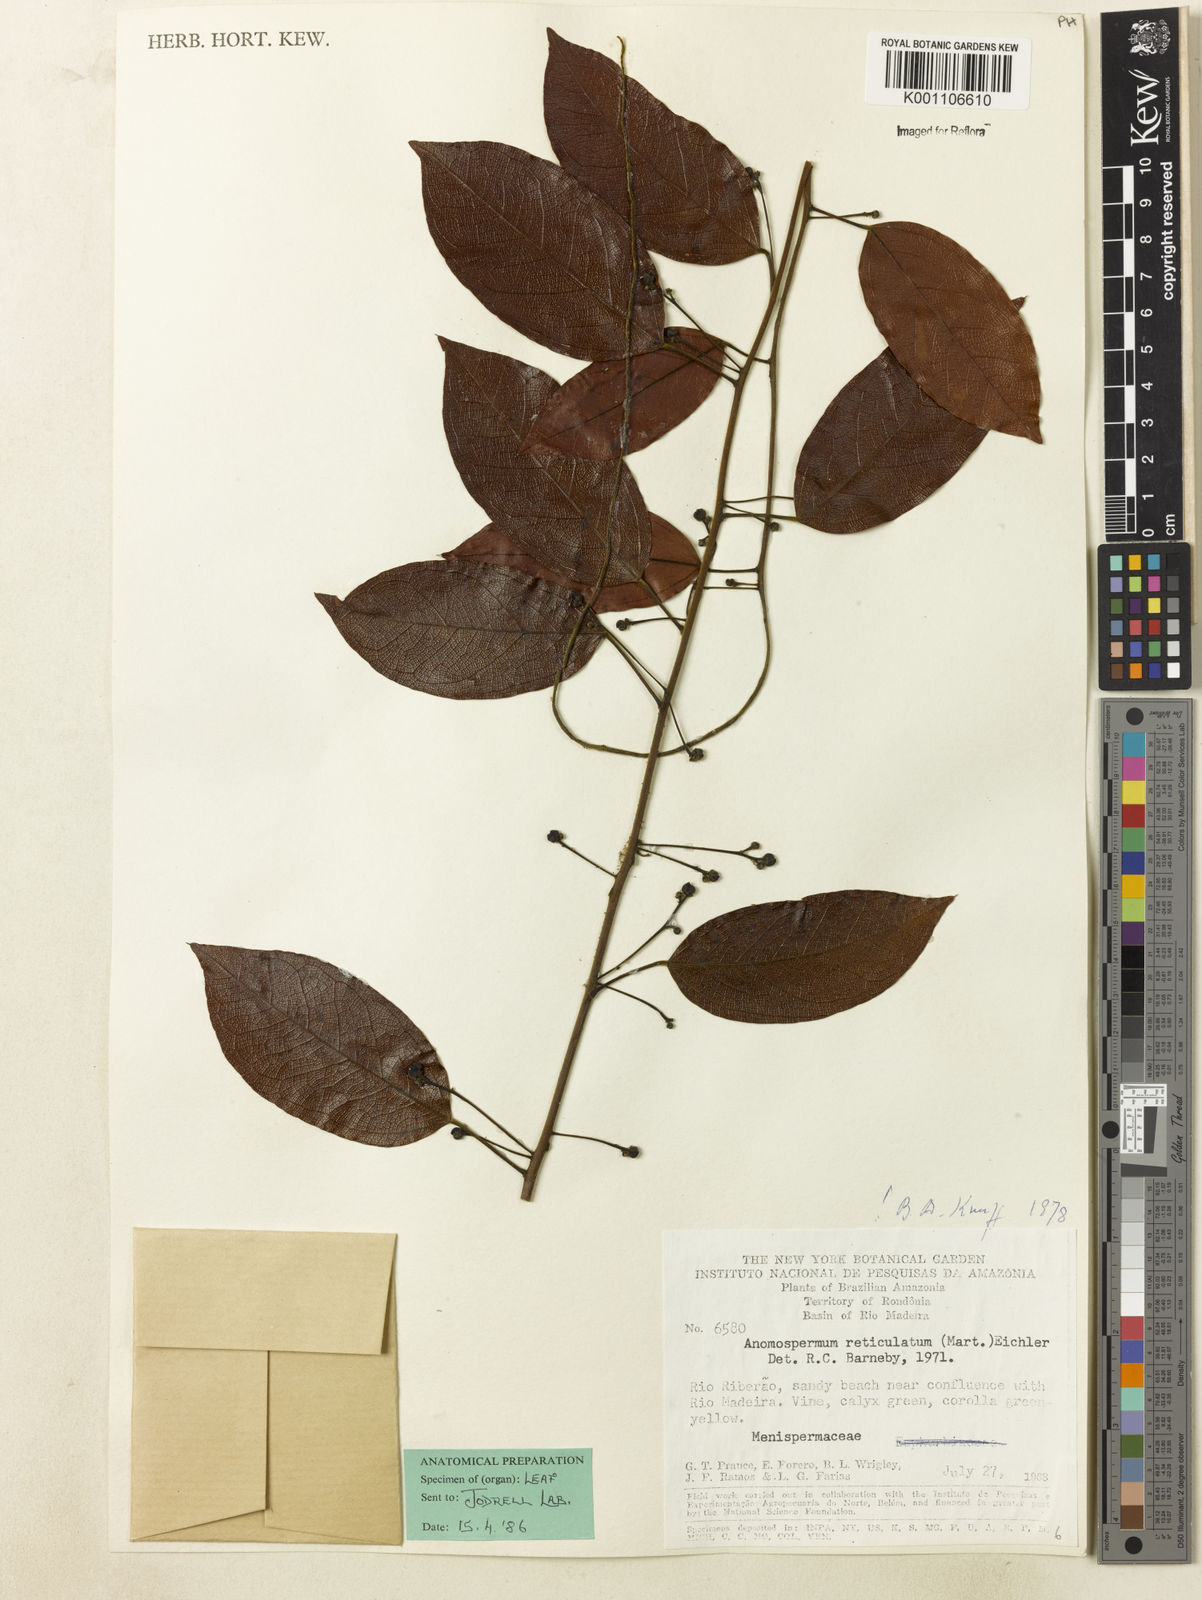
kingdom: Plantae
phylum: Tracheophyta
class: Magnoliopsida
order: Ranunculales
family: Menispermaceae
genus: Anomospermum
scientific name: Anomospermum reticulatum
